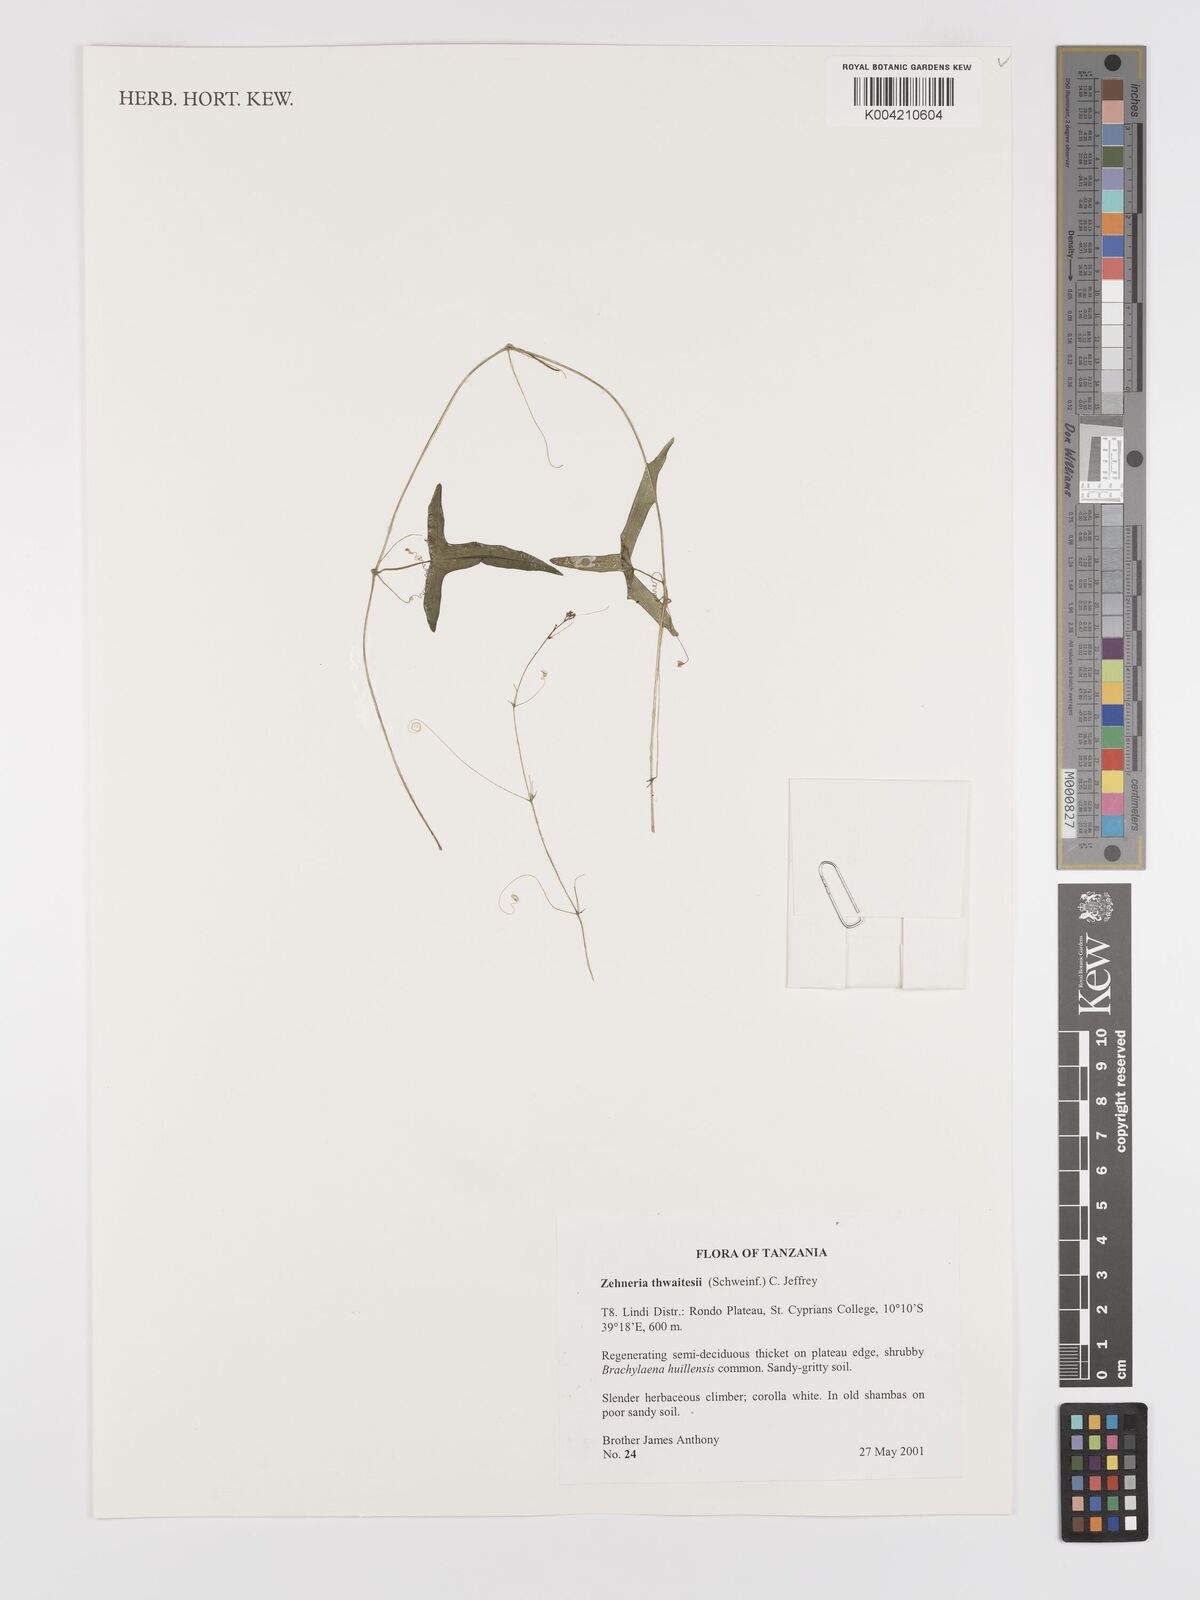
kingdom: Plantae
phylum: Tracheophyta
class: Magnoliopsida
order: Cucurbitales
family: Cucurbitaceae
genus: Zehneria
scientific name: Zehneria thwaitesii
